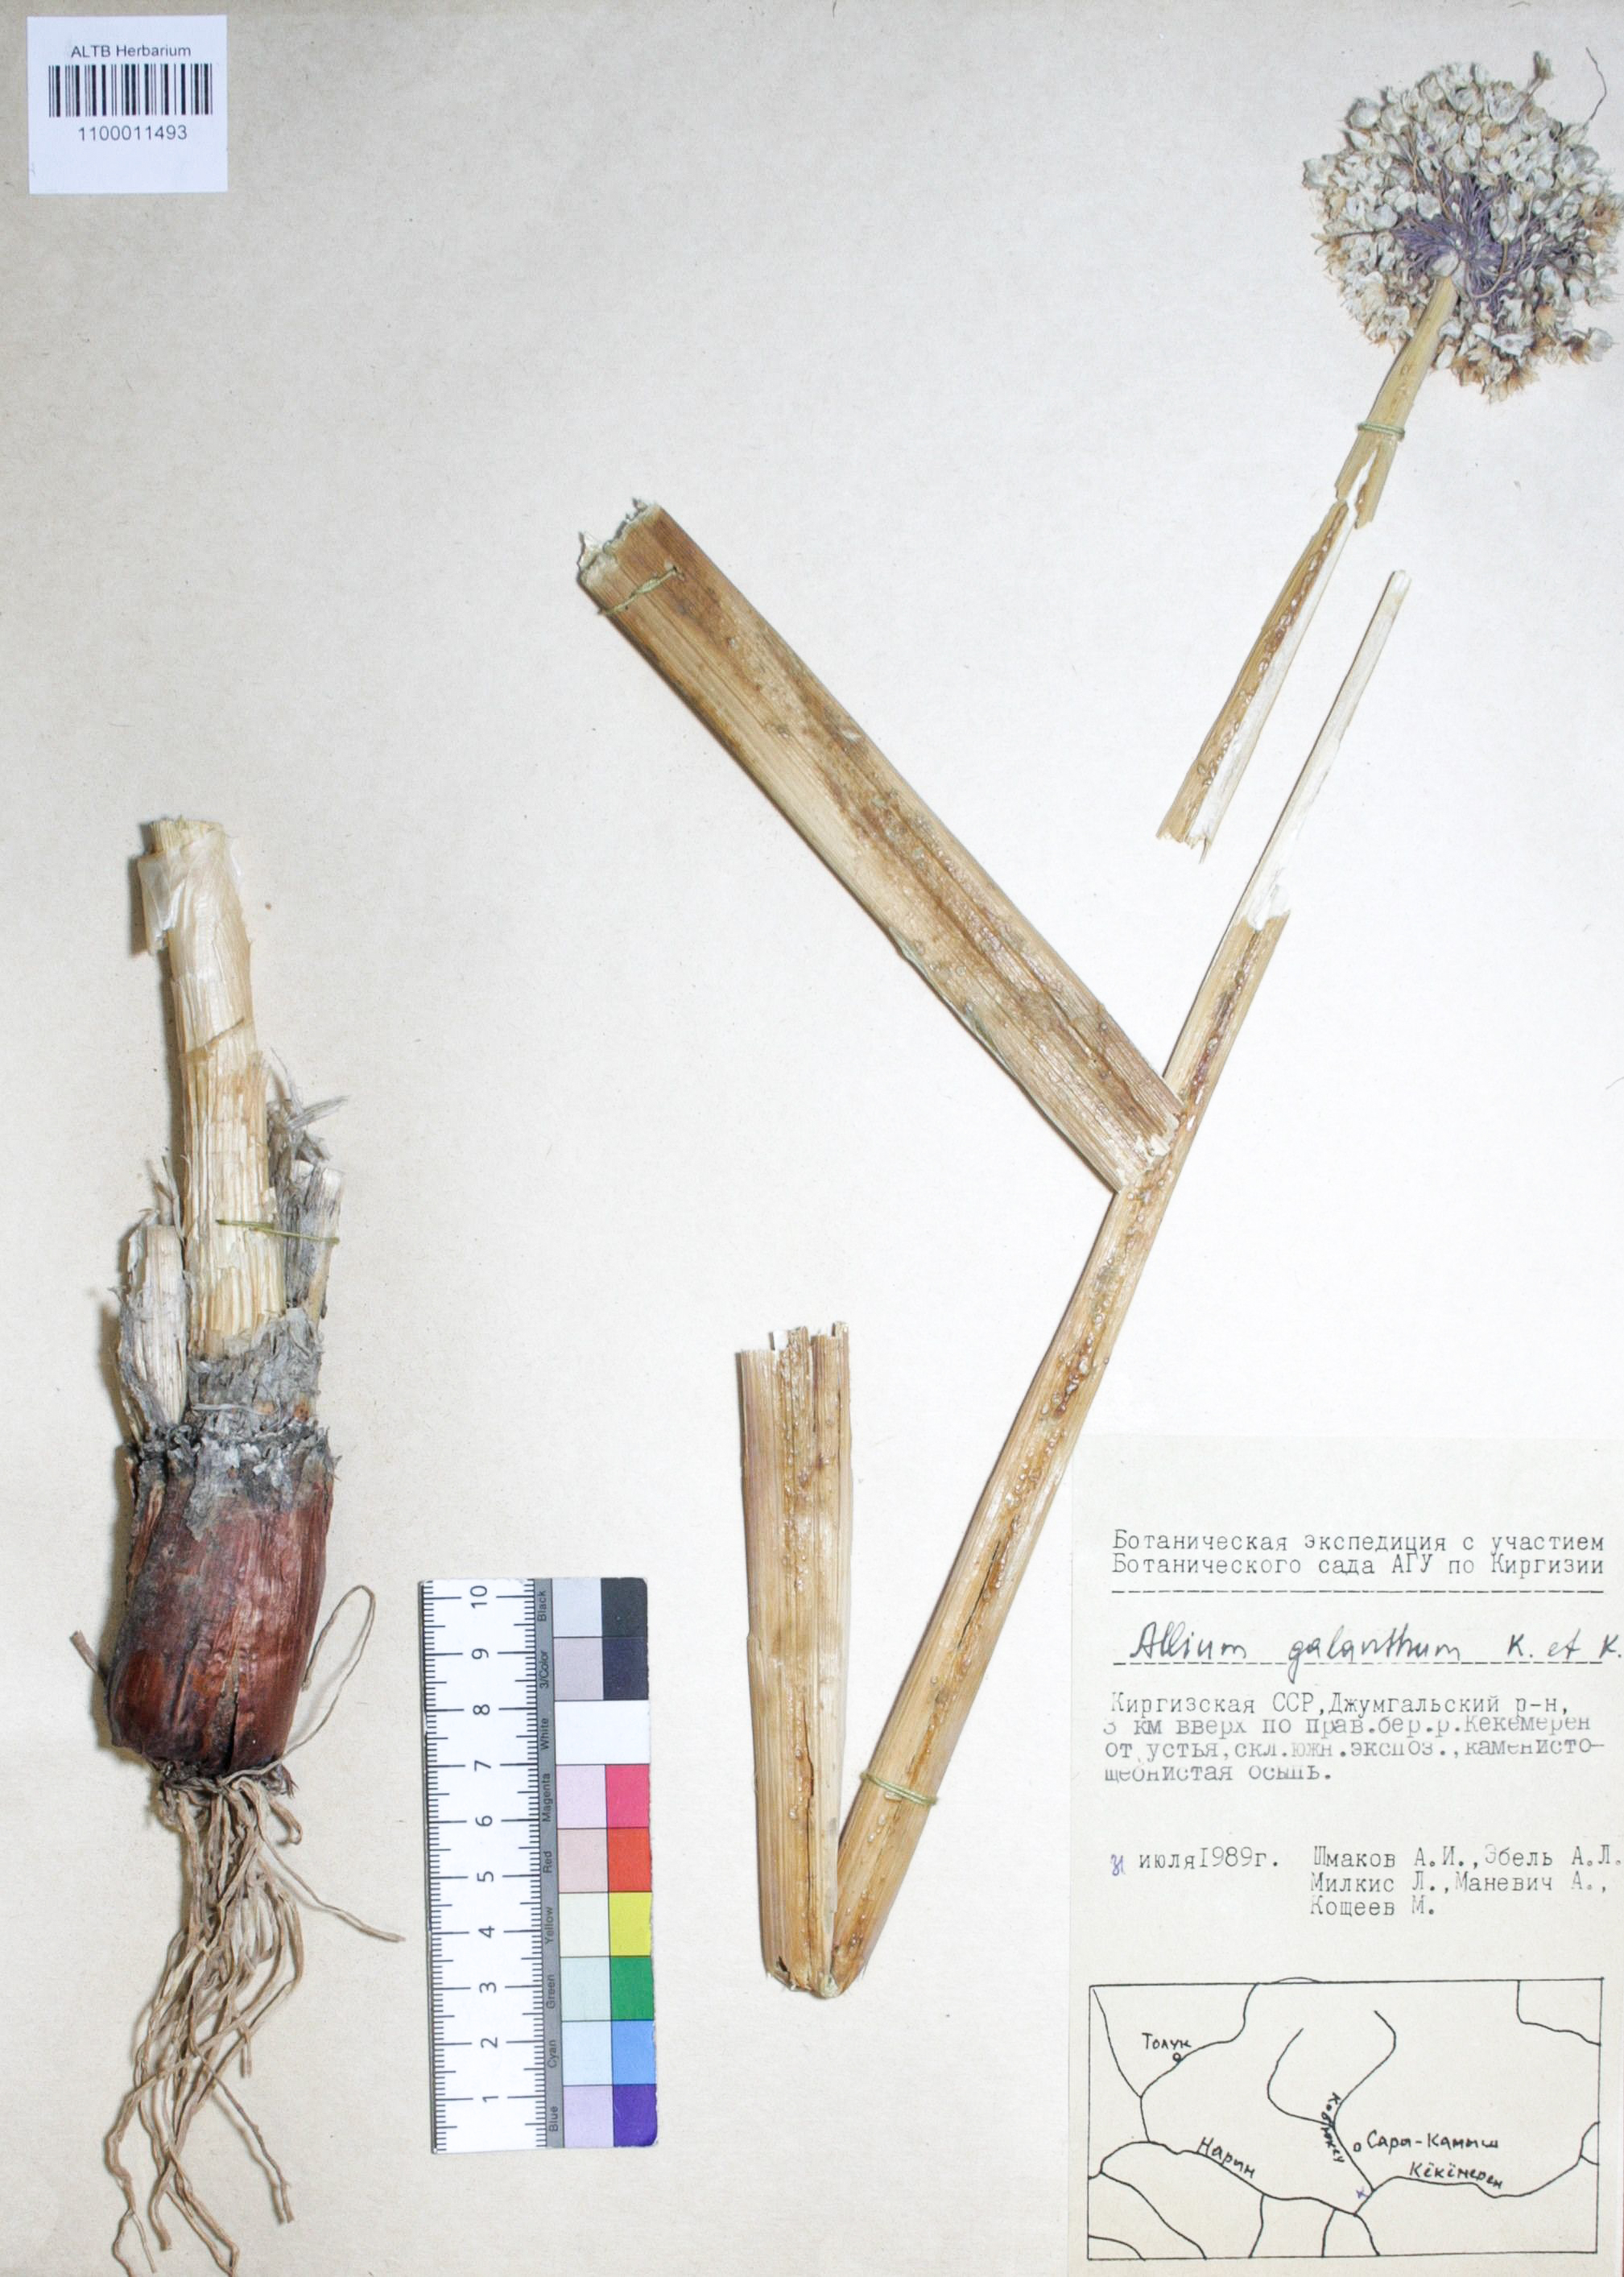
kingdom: Plantae
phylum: Tracheophyta
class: Liliopsida
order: Asparagales
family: Amaryllidaceae
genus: Allium
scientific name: Allium galanthum
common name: Snowdrop onion
